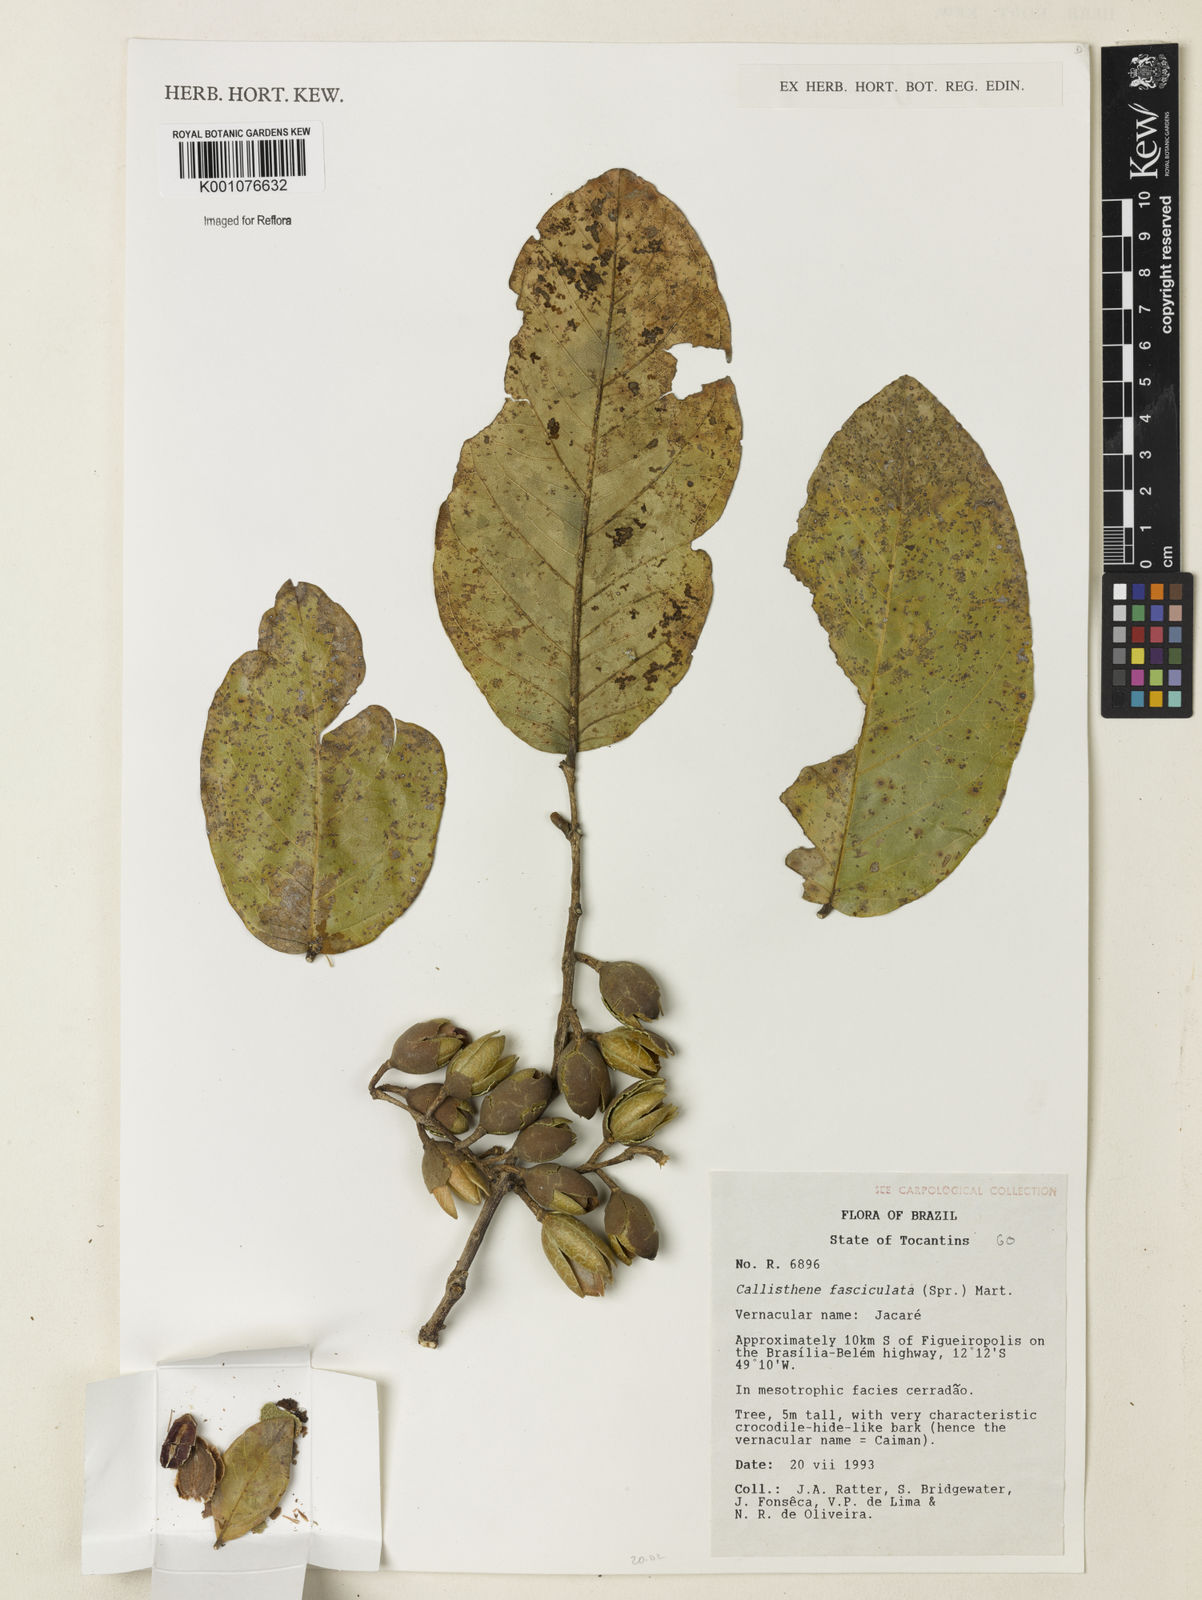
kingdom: Plantae
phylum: Tracheophyta
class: Magnoliopsida
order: Myrtales
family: Vochysiaceae
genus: Callisthene
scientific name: Callisthene fasciculata
